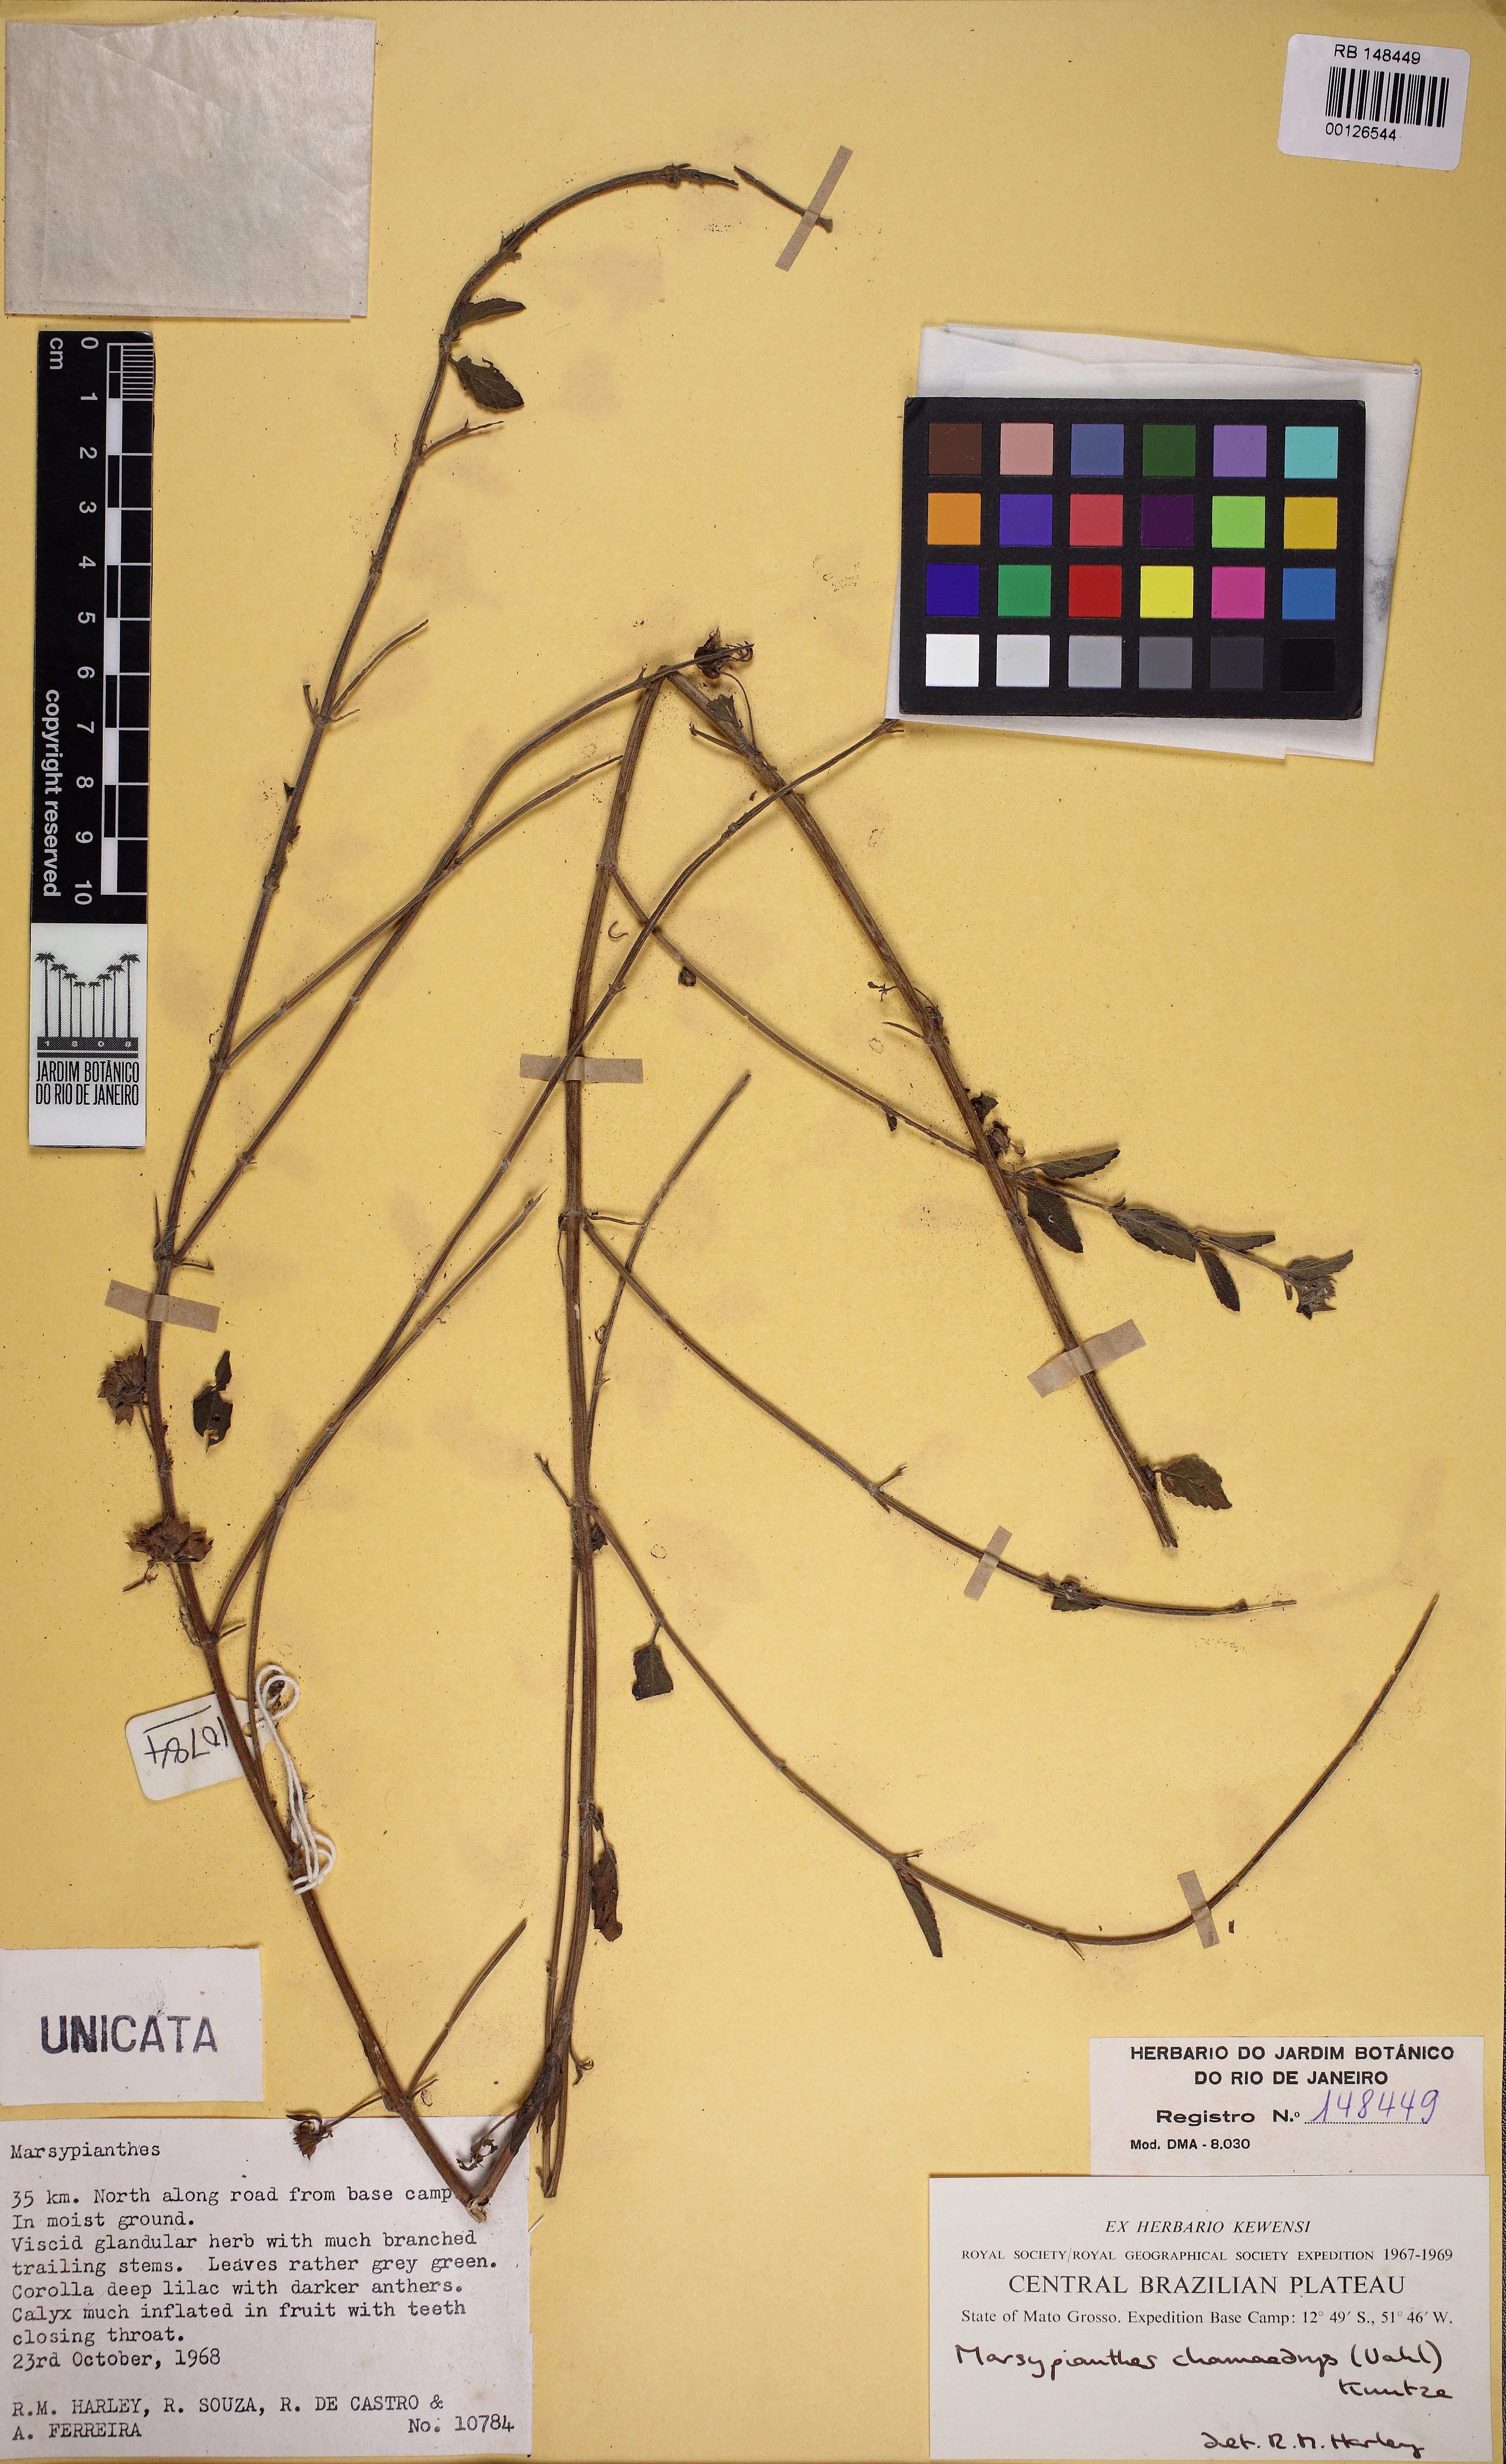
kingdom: Plantae
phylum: Tracheophyta
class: Magnoliopsida
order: Lamiales
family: Lamiaceae
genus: Marsypianthes
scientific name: Marsypianthes chamaedrys
